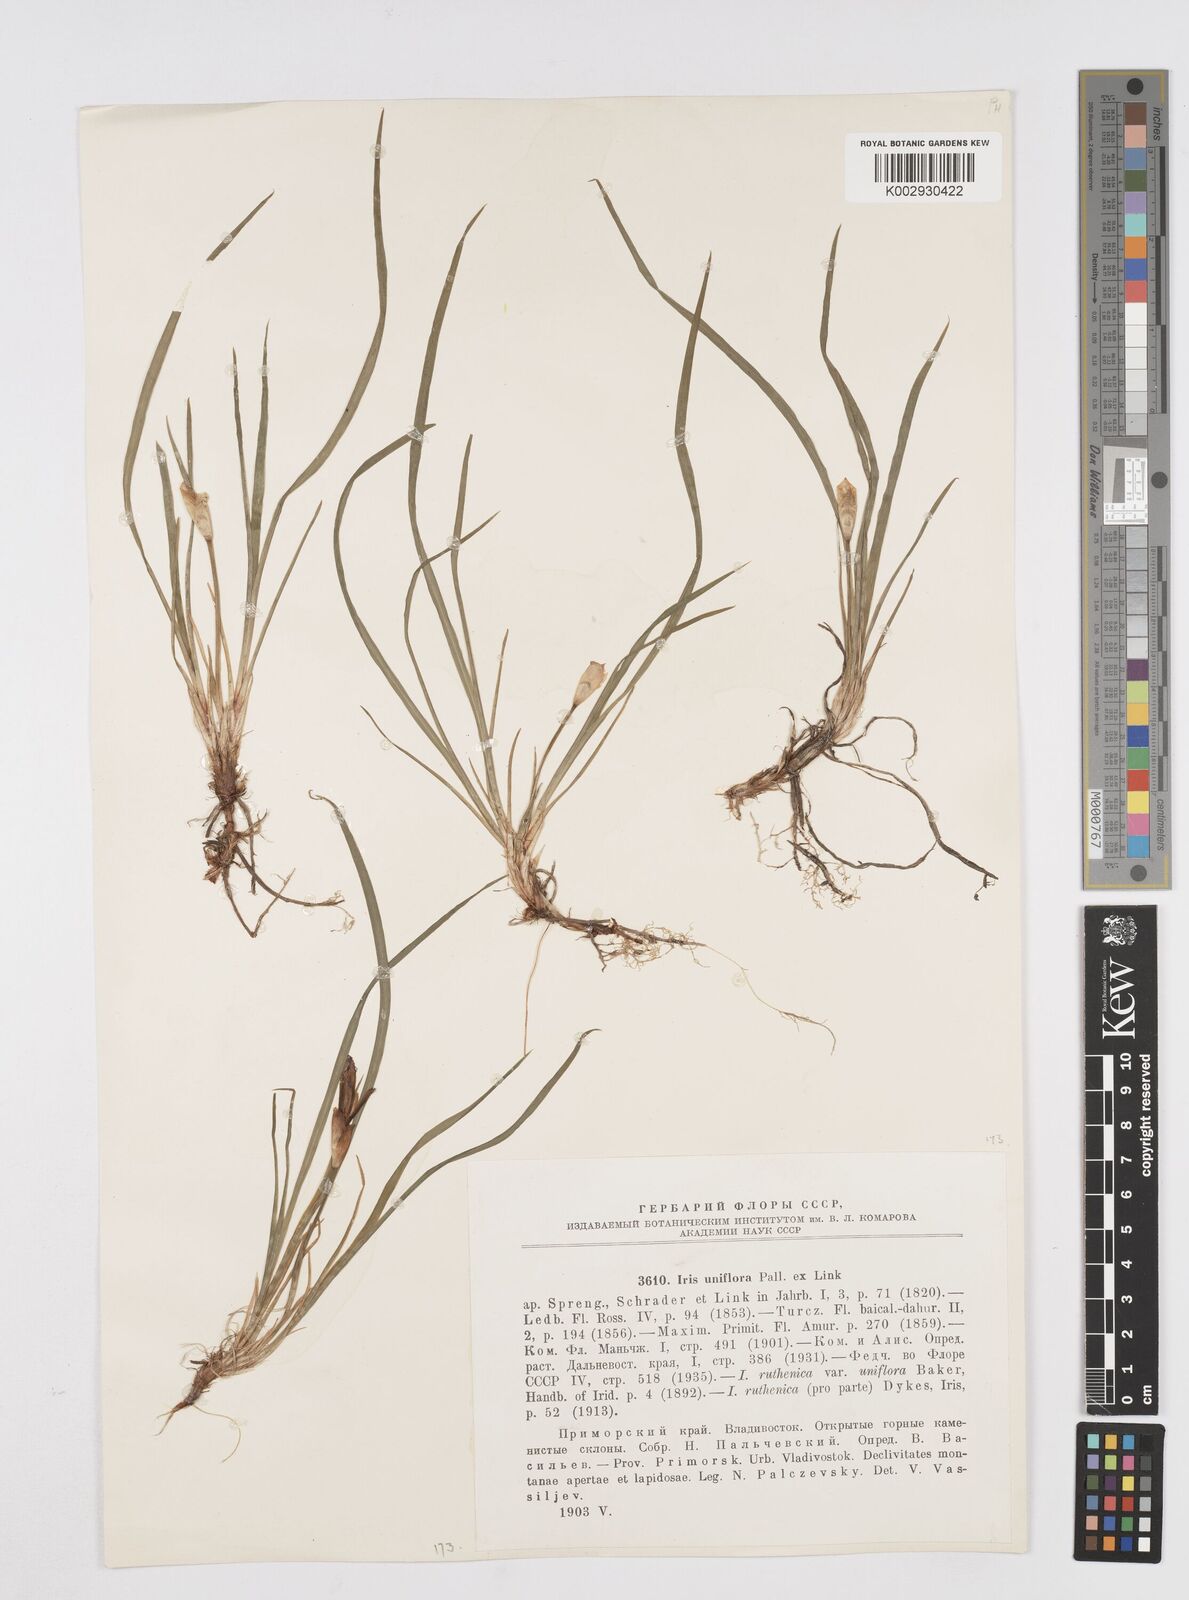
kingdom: Plantae
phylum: Tracheophyta
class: Liliopsida
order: Asparagales
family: Iridaceae
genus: Iris
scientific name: Iris uniflora
